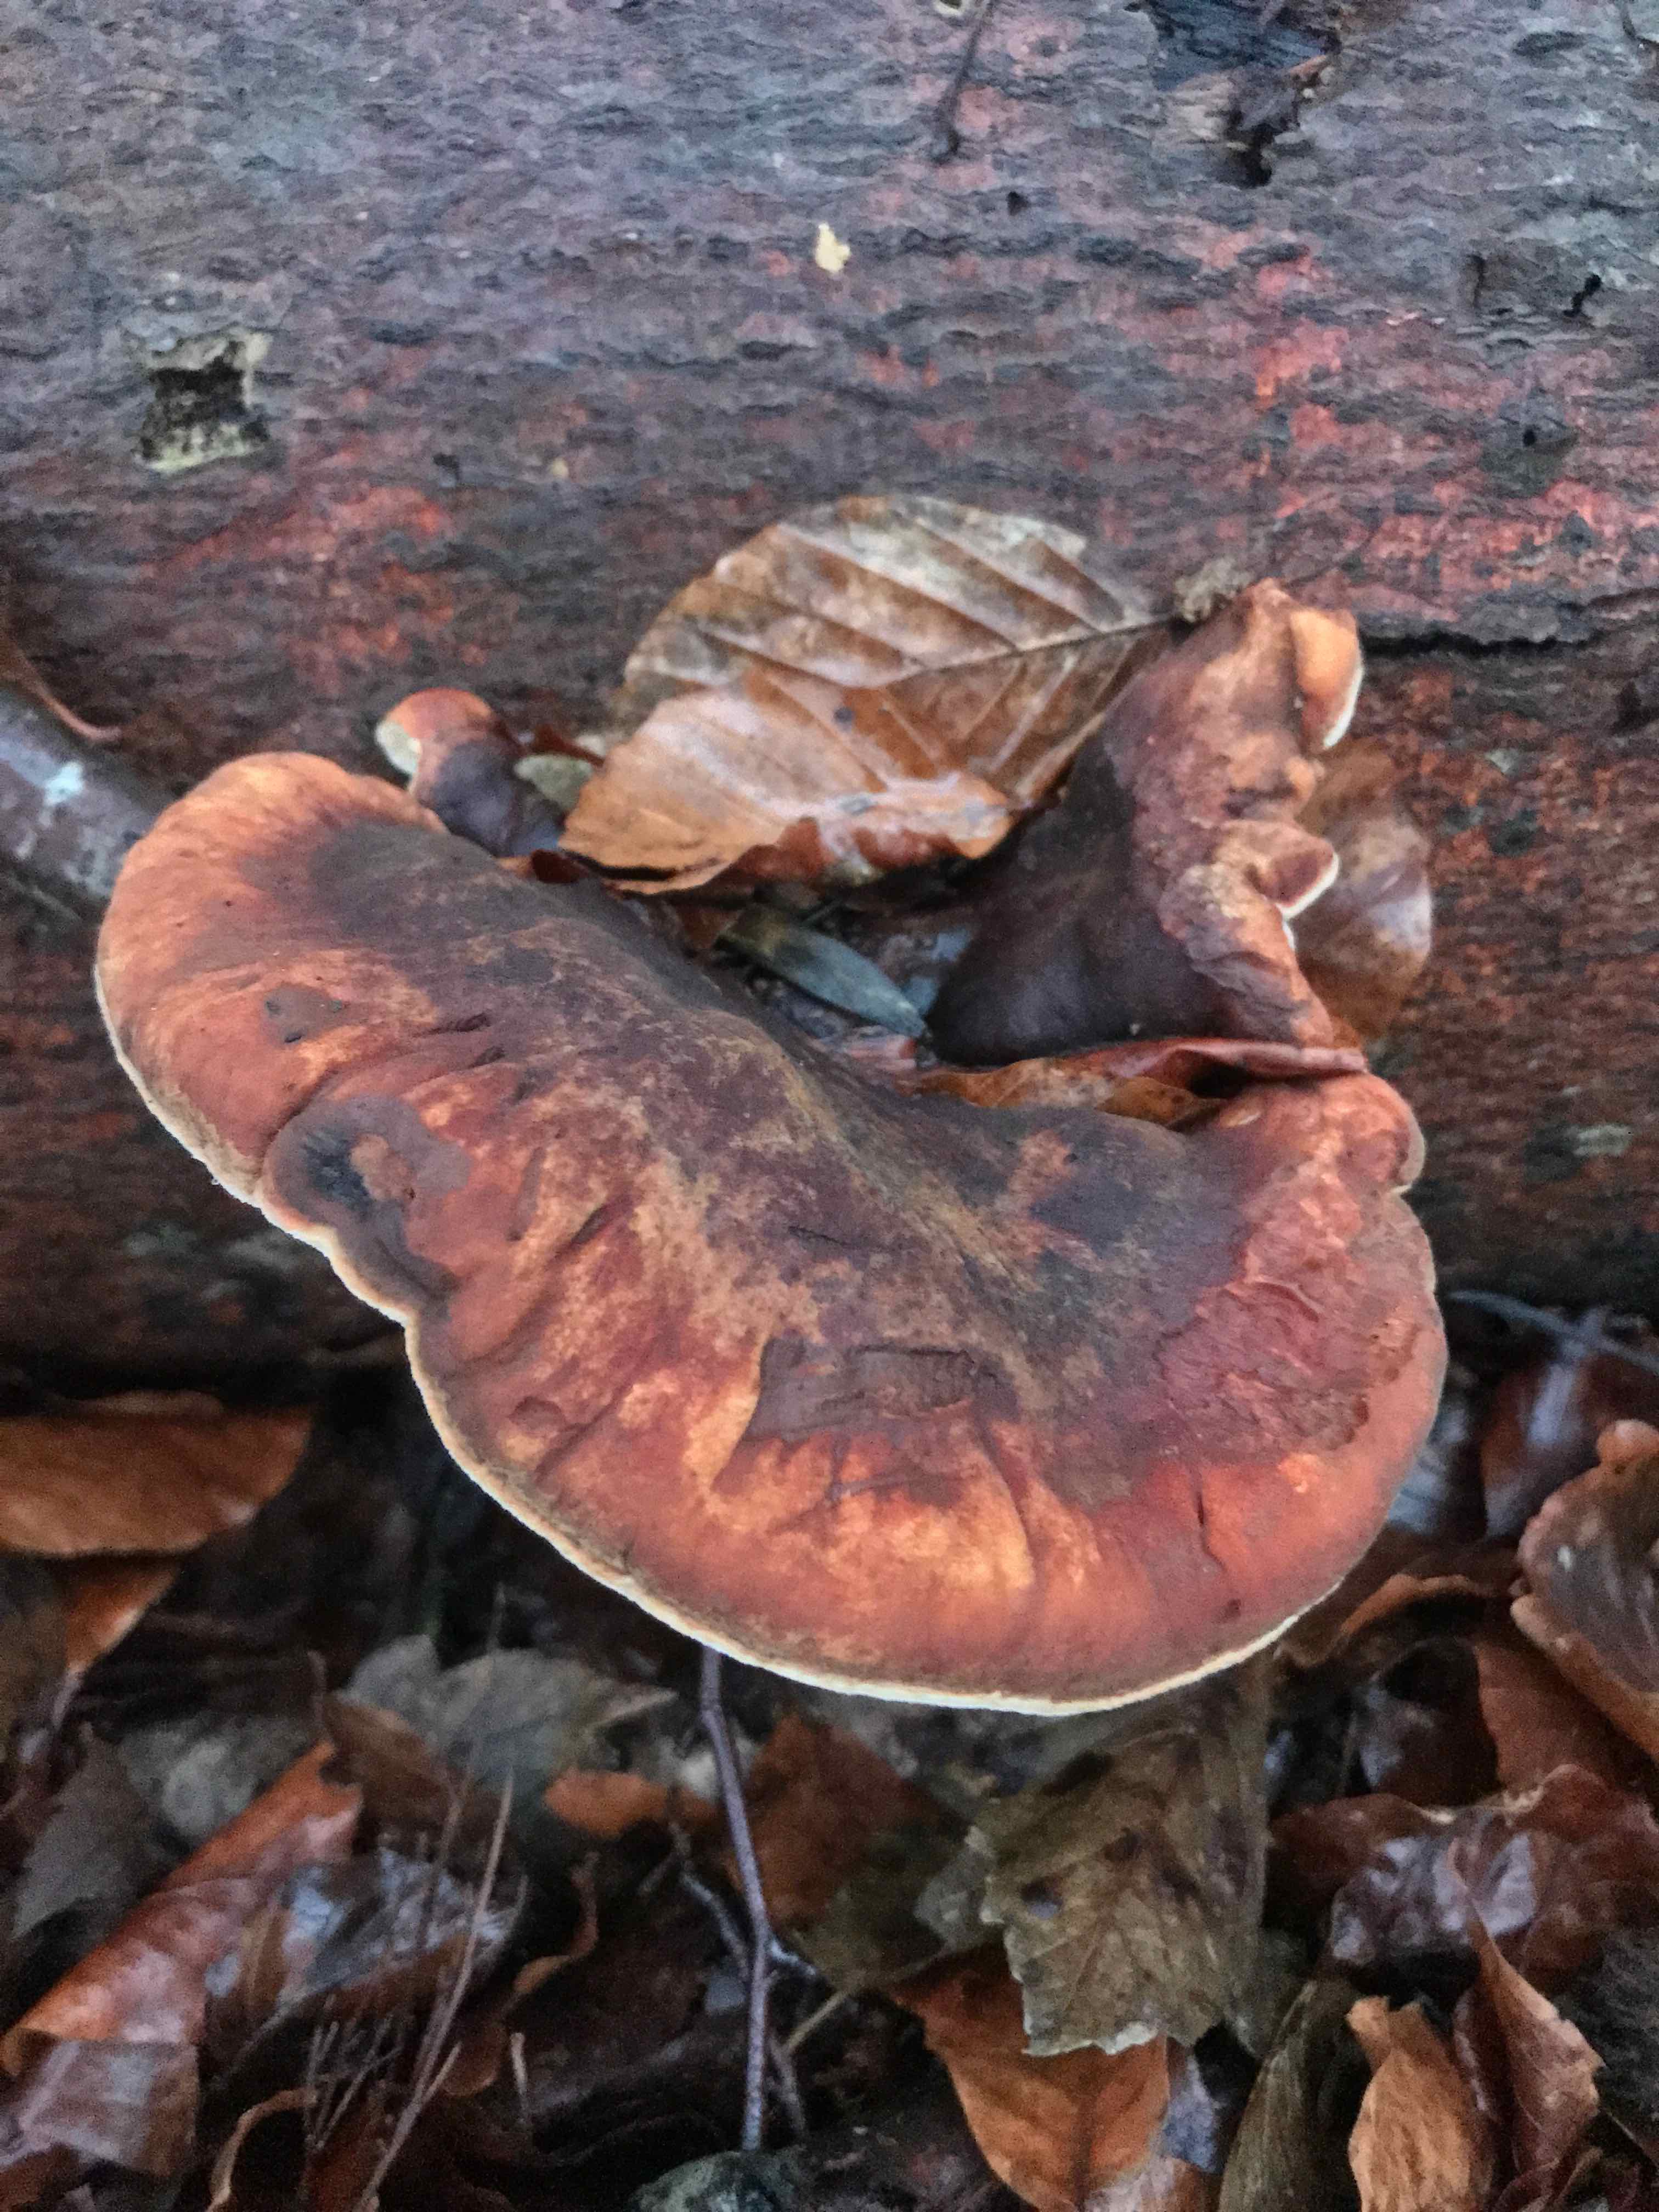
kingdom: Fungi
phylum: Basidiomycota
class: Agaricomycetes
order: Polyporales
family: Ischnodermataceae
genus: Ischnoderma
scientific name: Ischnoderma resinosum
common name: løv-tjæreporesvamp
